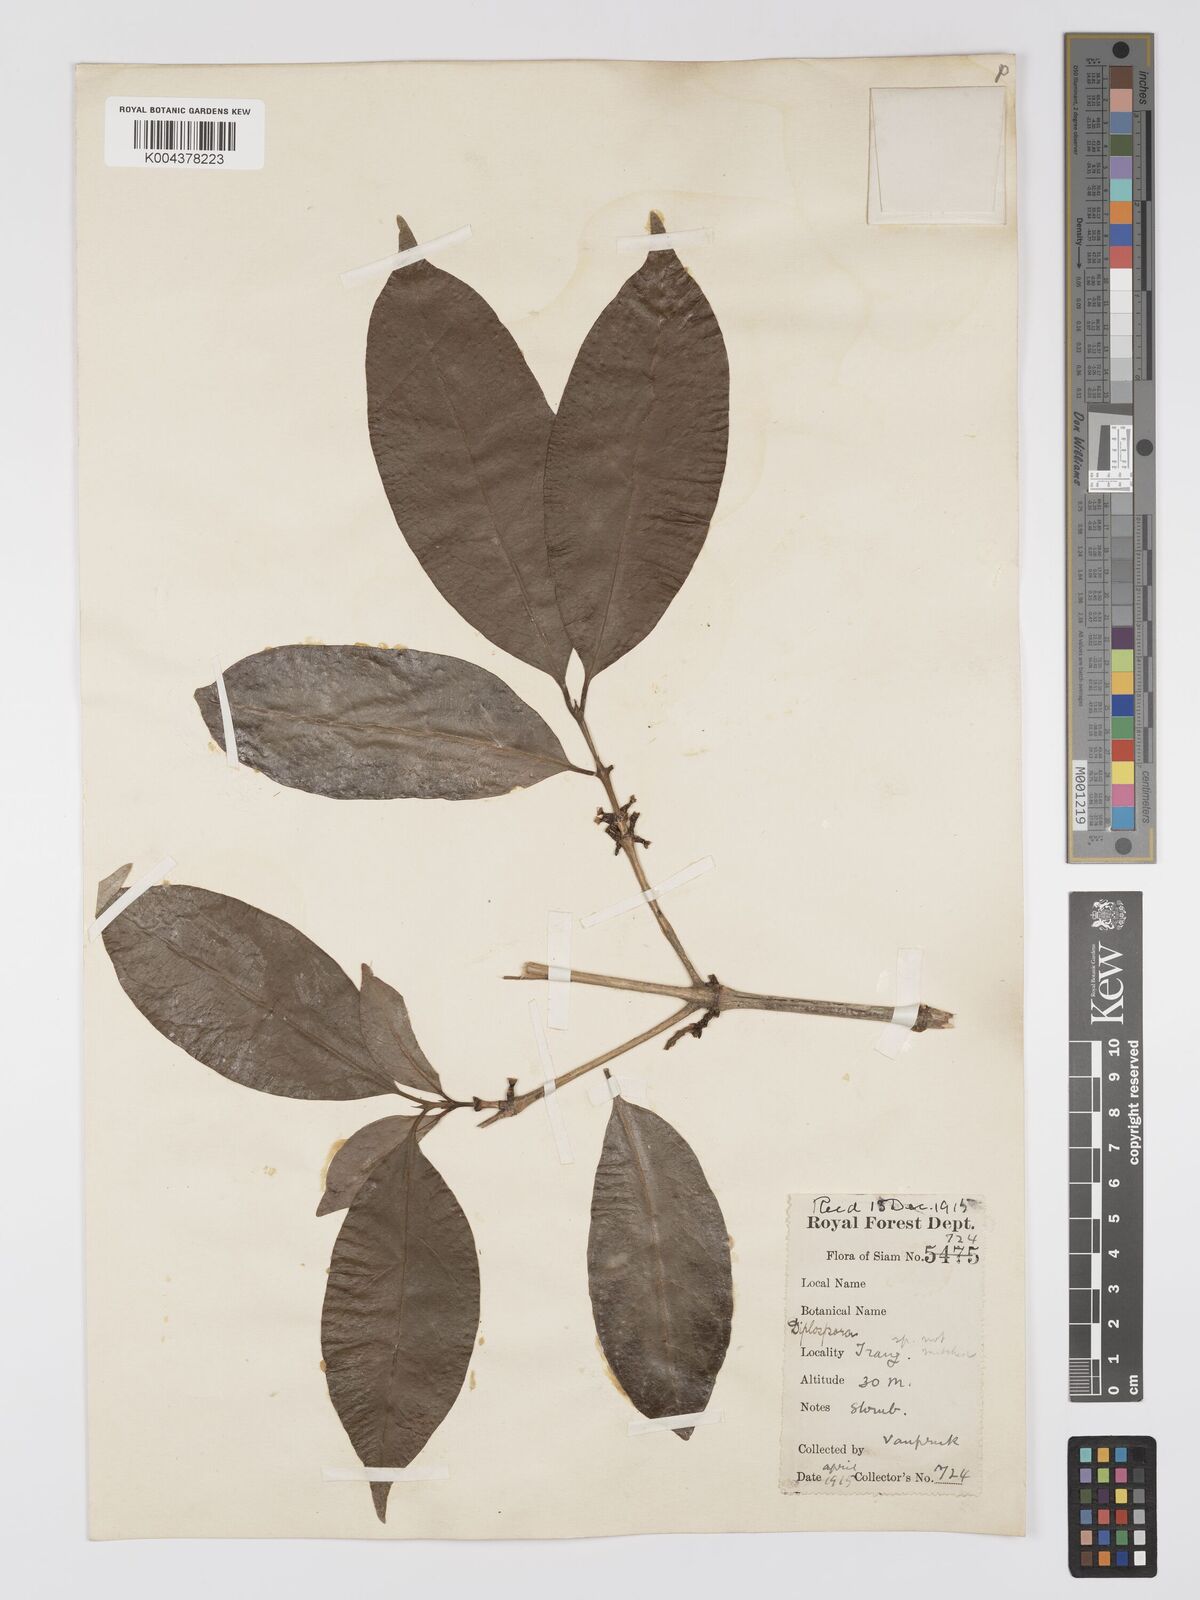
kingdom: Plantae
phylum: Tracheophyta
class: Magnoliopsida
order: Gentianales
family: Rubiaceae
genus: Diplospora
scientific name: Diplospora
